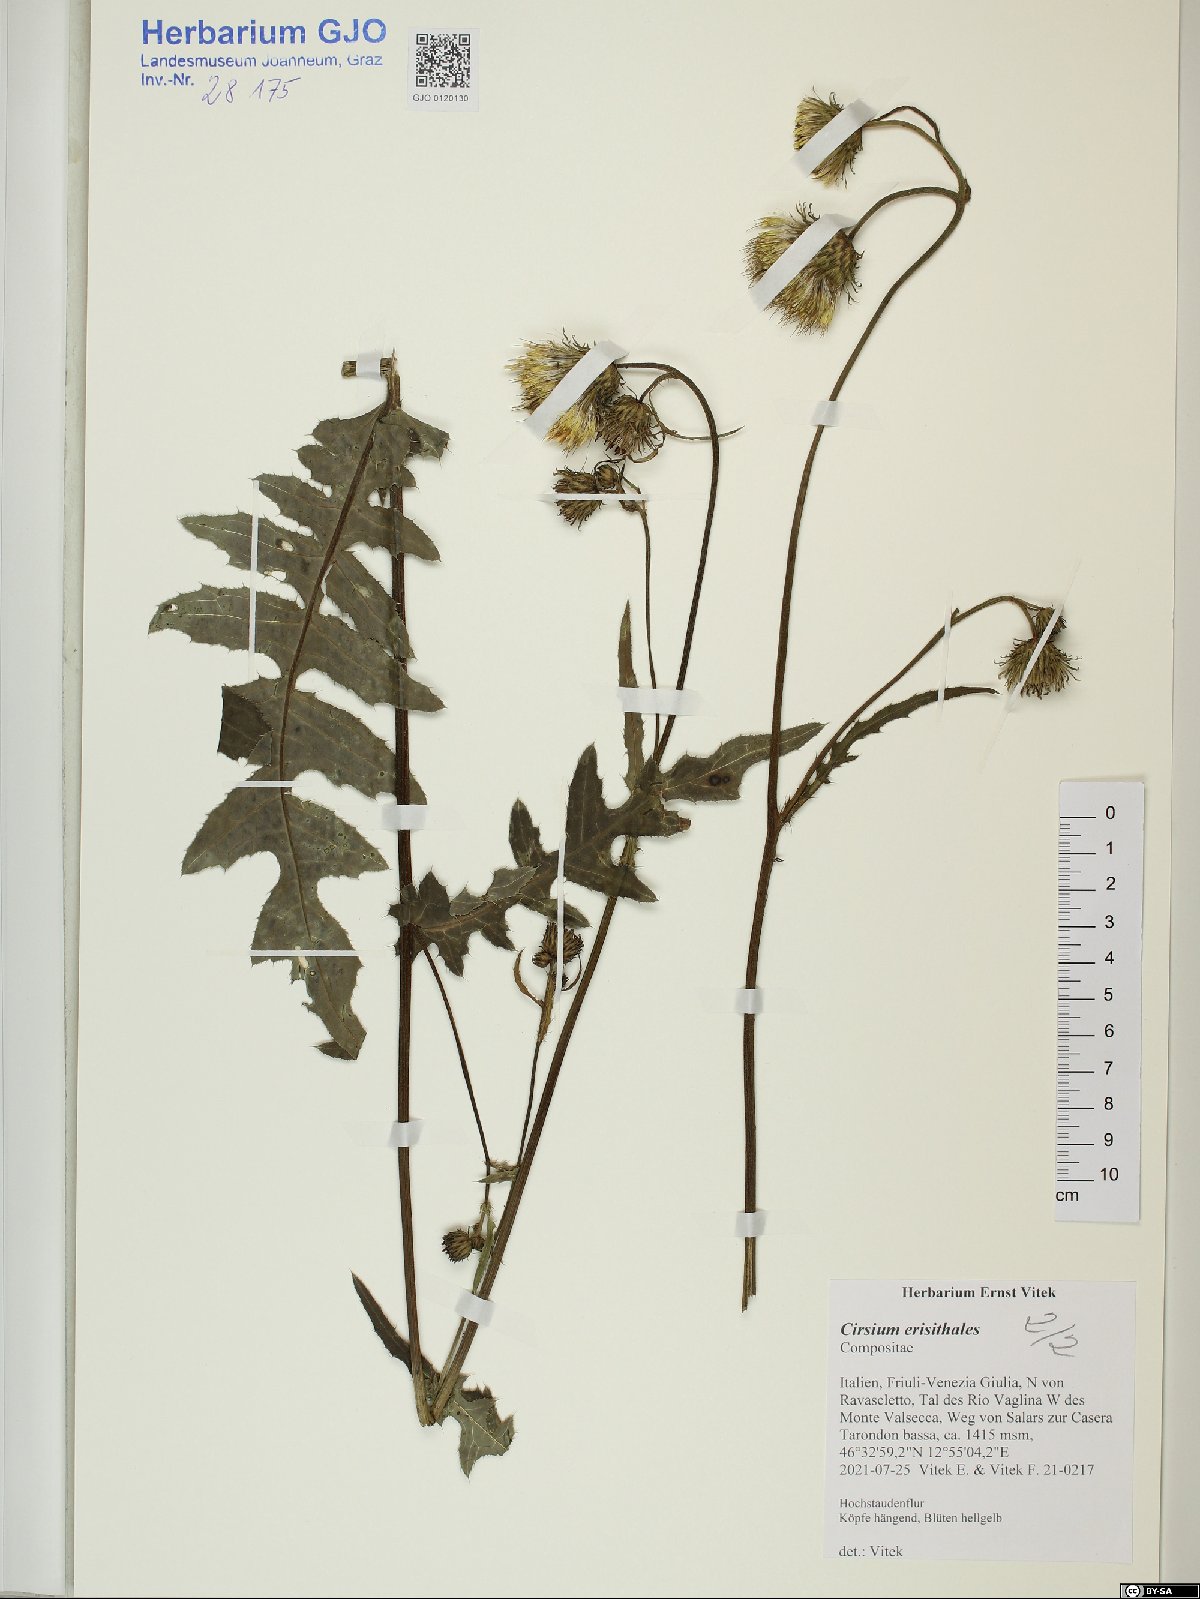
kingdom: Plantae
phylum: Tracheophyta
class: Magnoliopsida
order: Asterales
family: Asteraceae
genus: Cirsium
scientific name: Cirsium erisithales
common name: Yellow thistle
